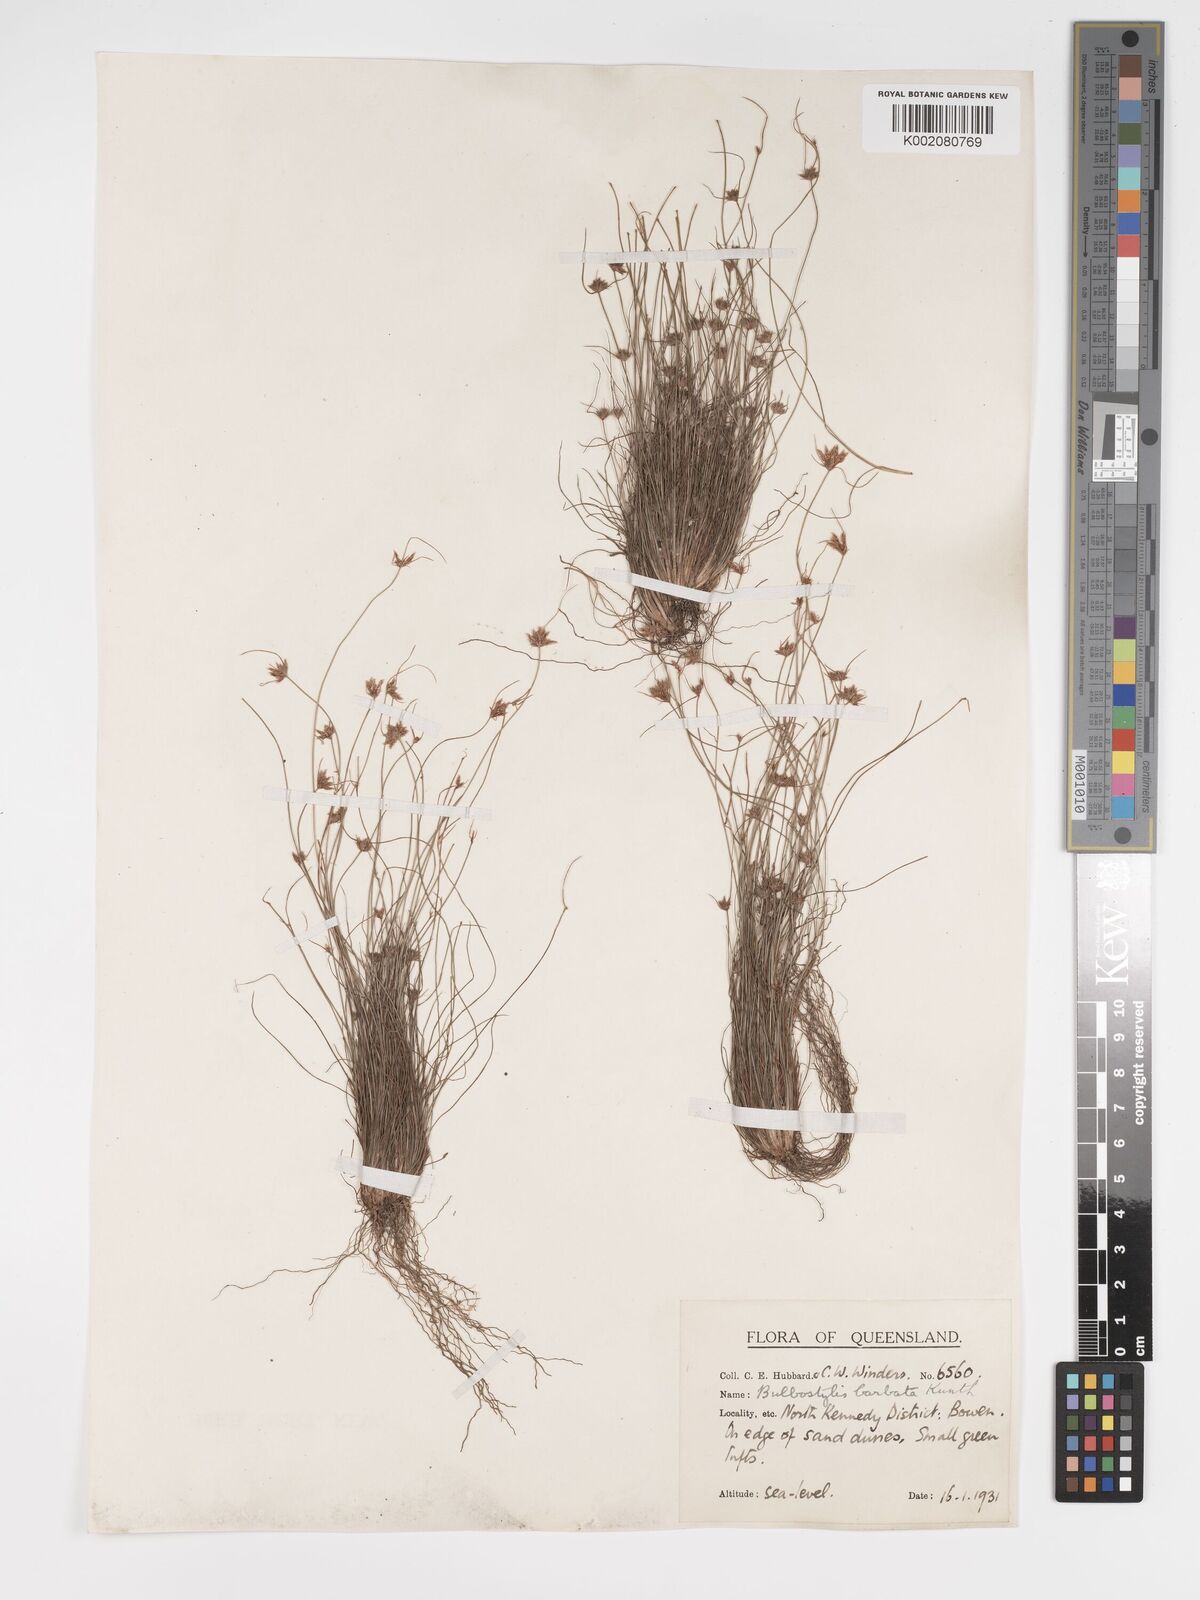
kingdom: Plantae
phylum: Tracheophyta
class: Liliopsida
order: Poales
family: Cyperaceae
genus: Bulbostylis
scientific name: Bulbostylis barbata
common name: Watergrass
